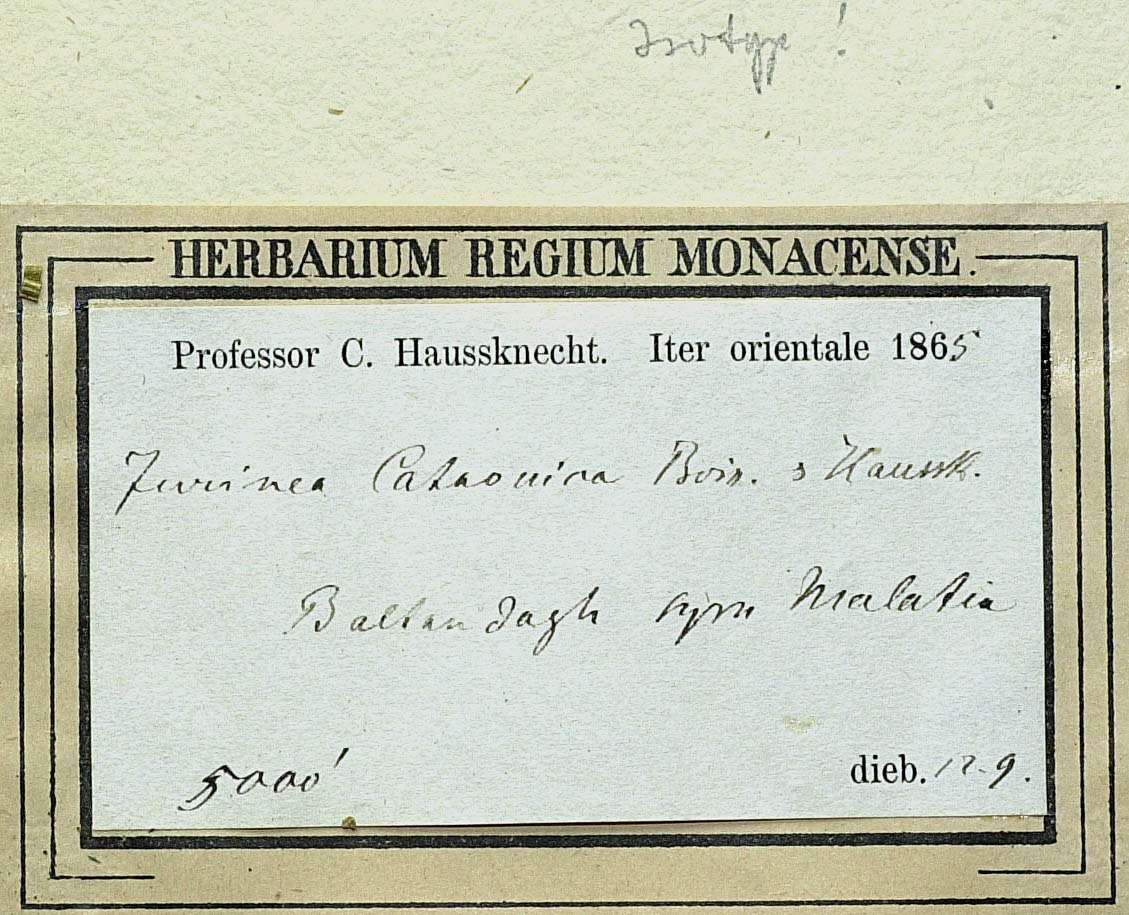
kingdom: Plantae
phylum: Tracheophyta
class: Magnoliopsida
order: Asterales
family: Asteraceae
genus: Jurinea
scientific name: Jurinea cataonica
